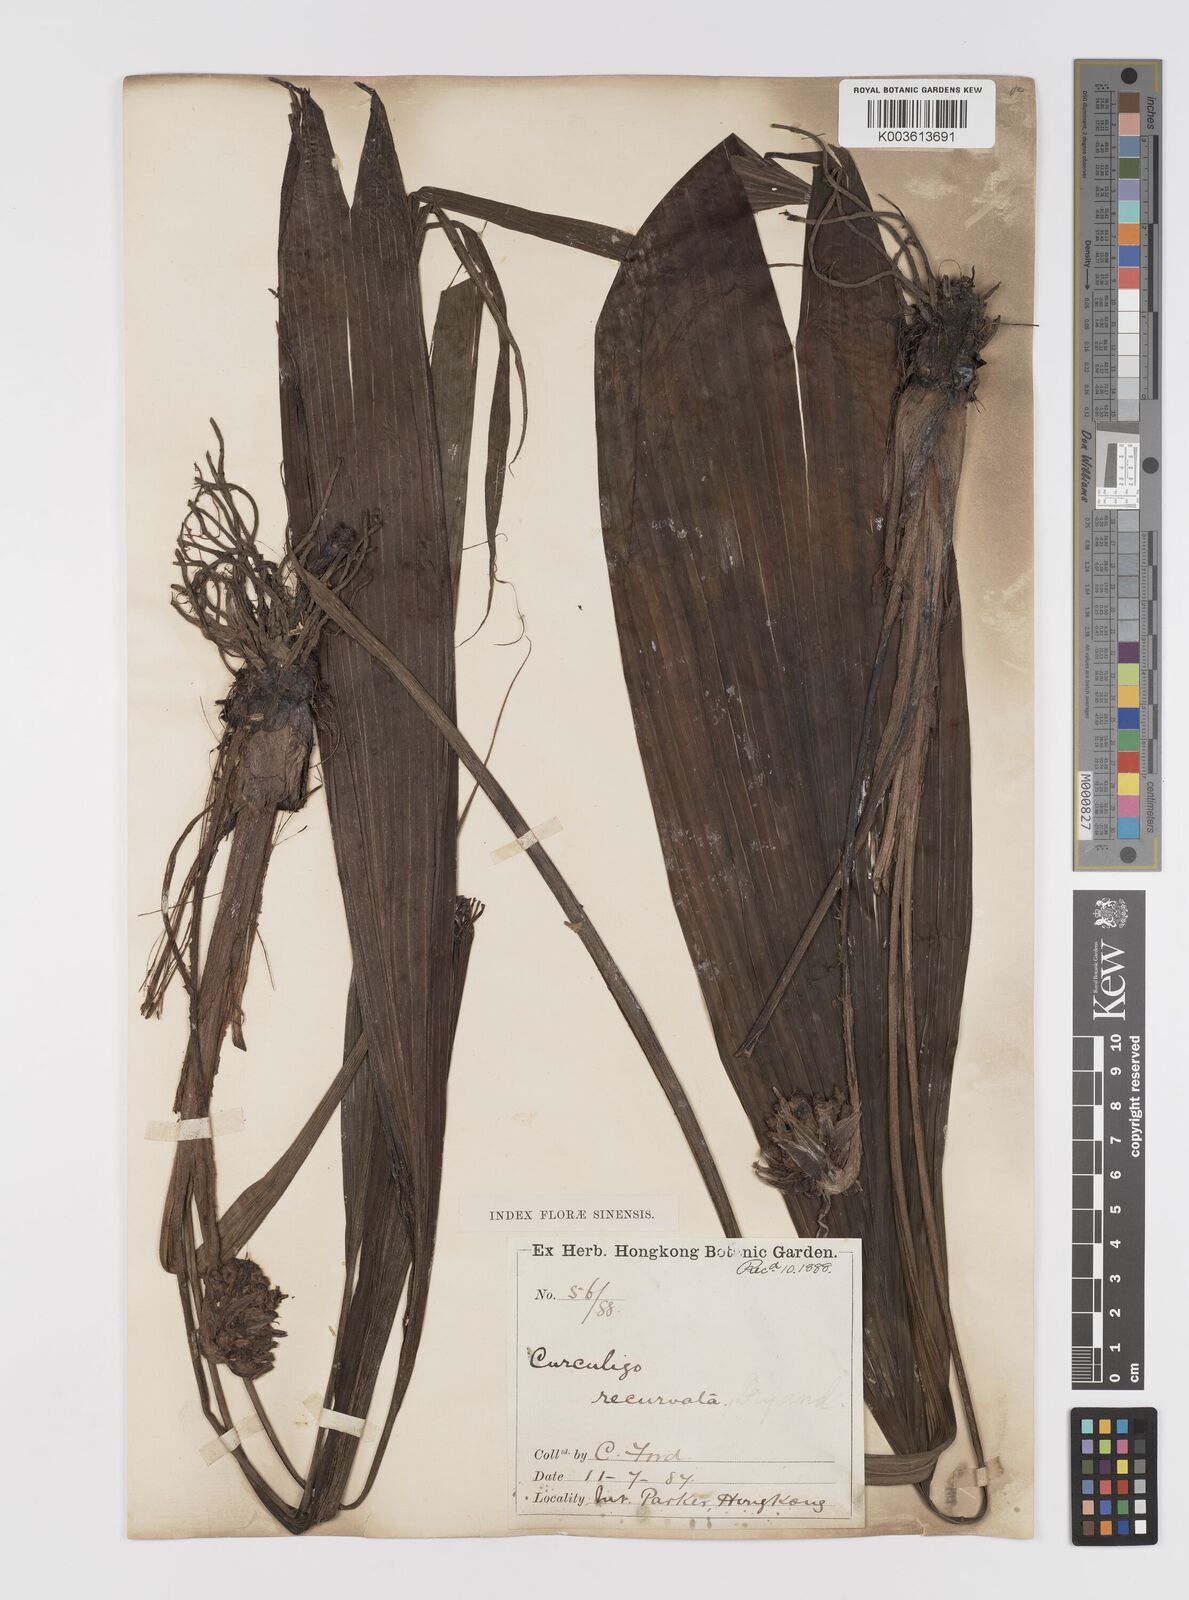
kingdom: Plantae
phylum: Tracheophyta
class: Liliopsida
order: Asparagales
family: Hypoxidaceae
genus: Curculigo
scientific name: Curculigo capitulata
